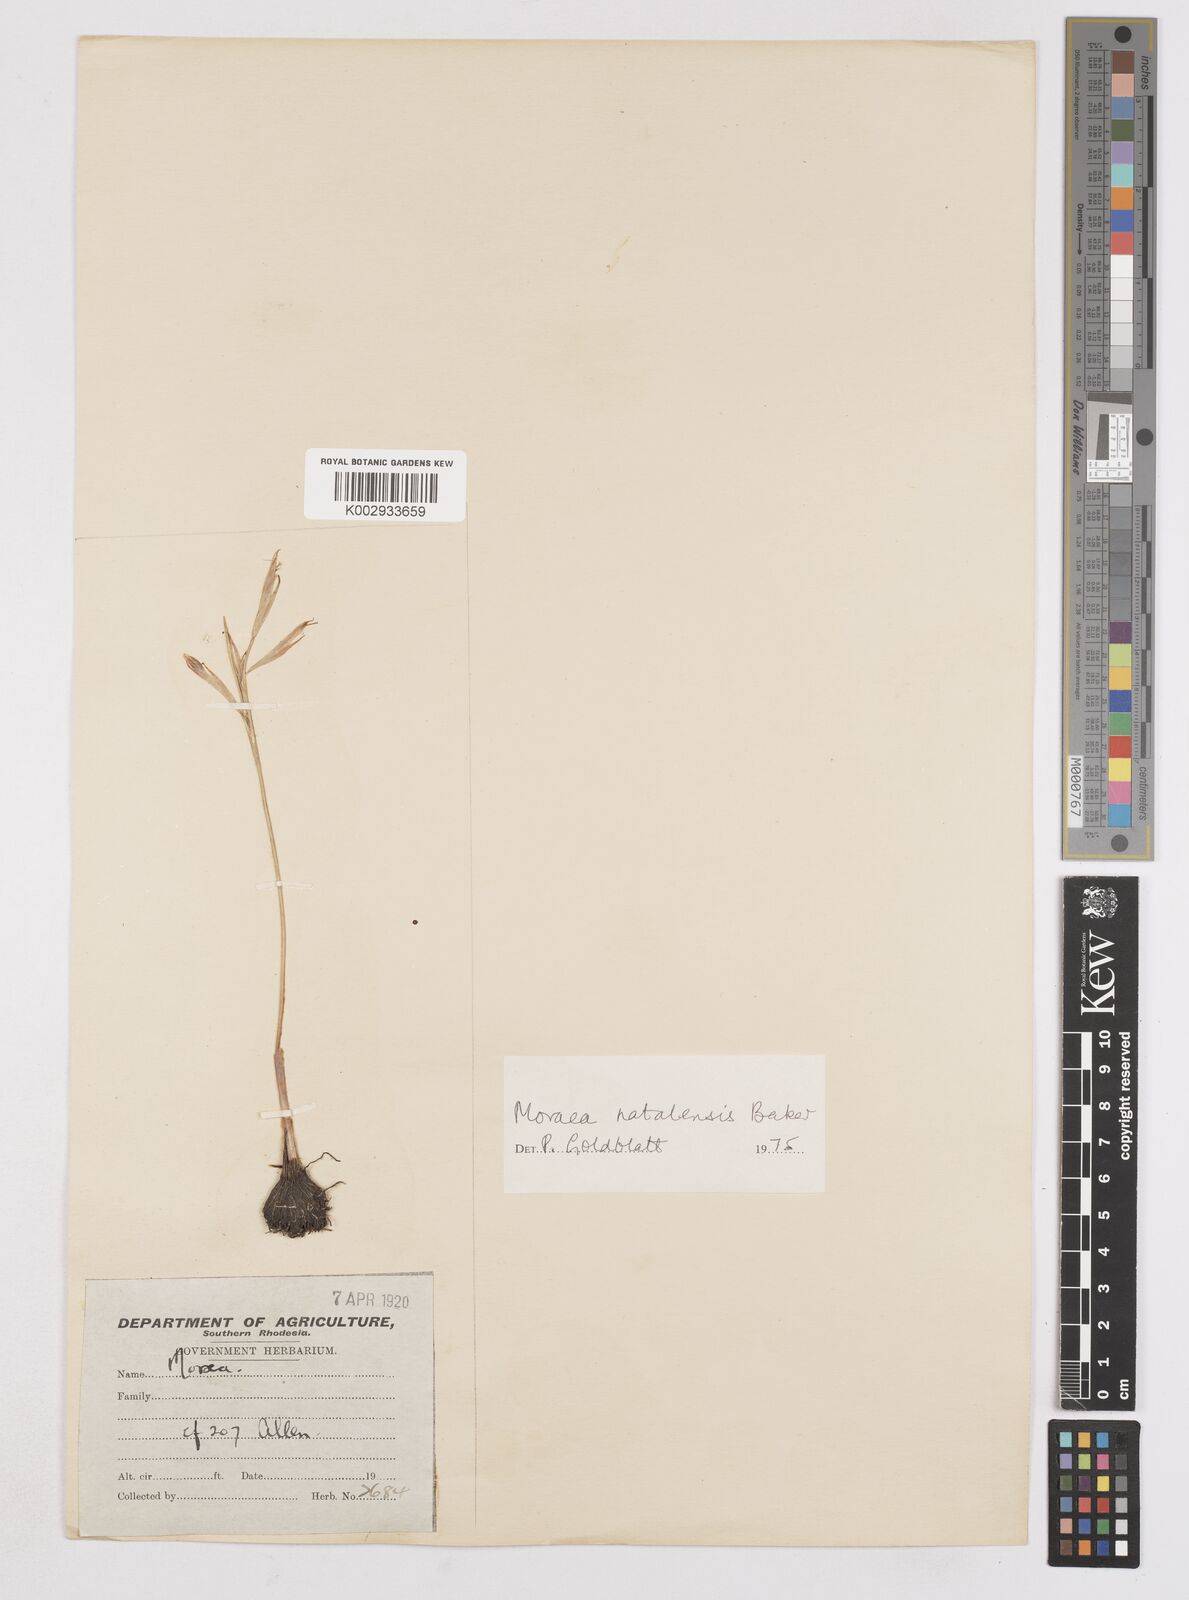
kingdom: Plantae
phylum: Tracheophyta
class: Liliopsida
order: Asparagales
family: Iridaceae
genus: Moraea
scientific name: Moraea natalensis
